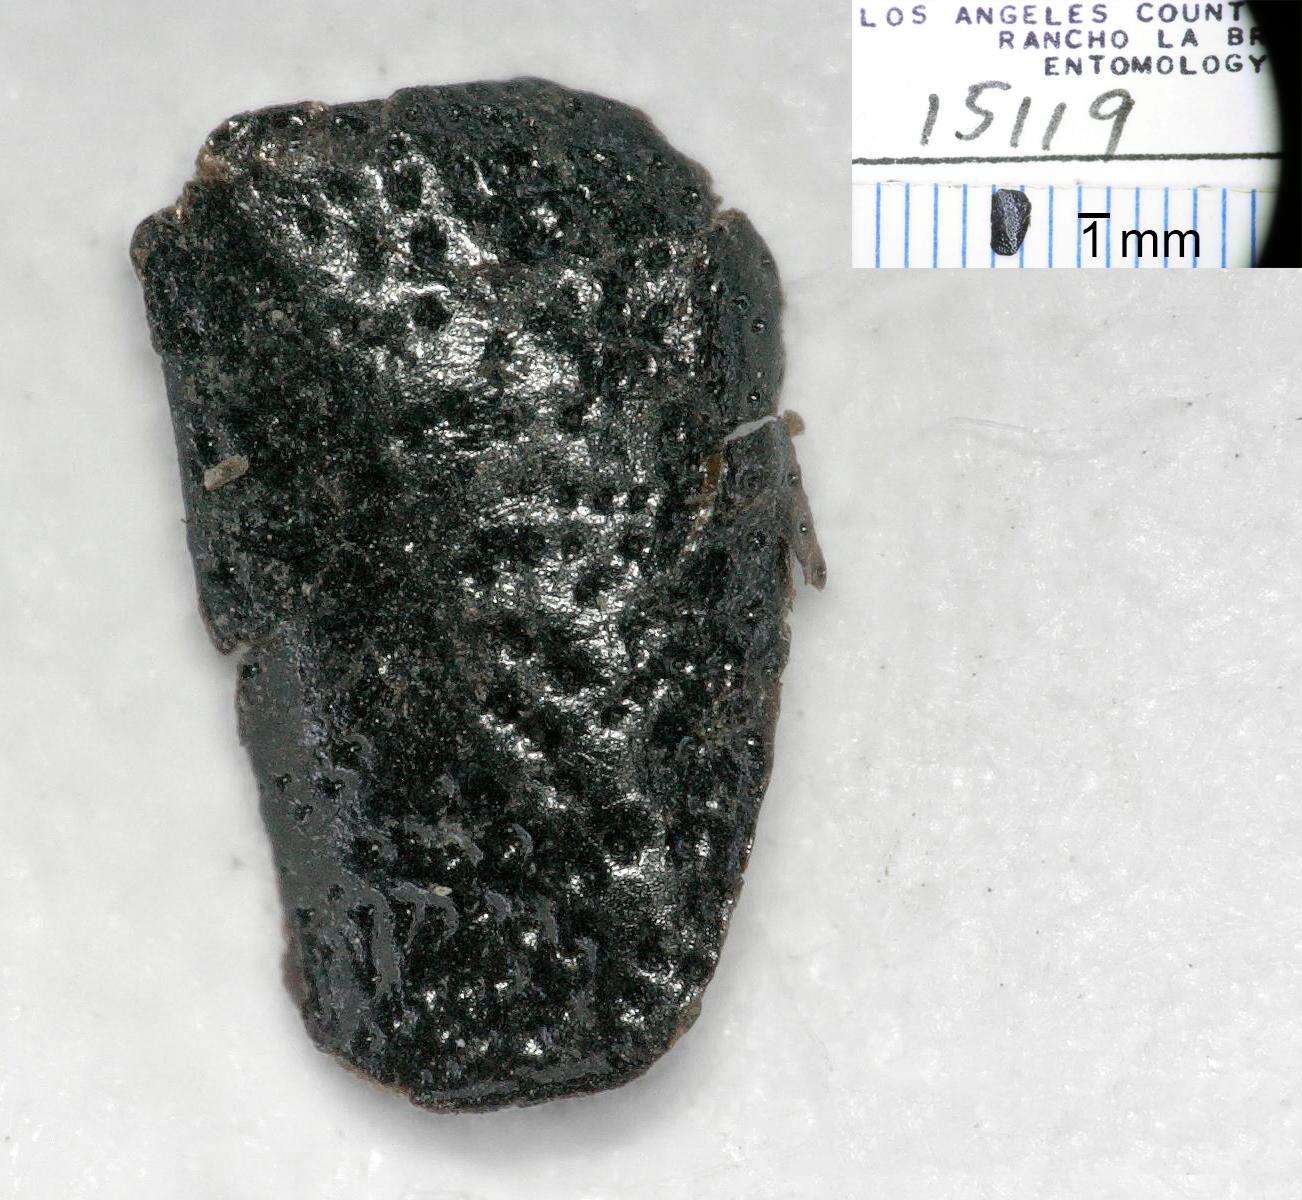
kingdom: Animalia
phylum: Arthropoda
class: Insecta
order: Coleoptera
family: Carabidae
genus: Dicheirus
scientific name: Dicheirus
